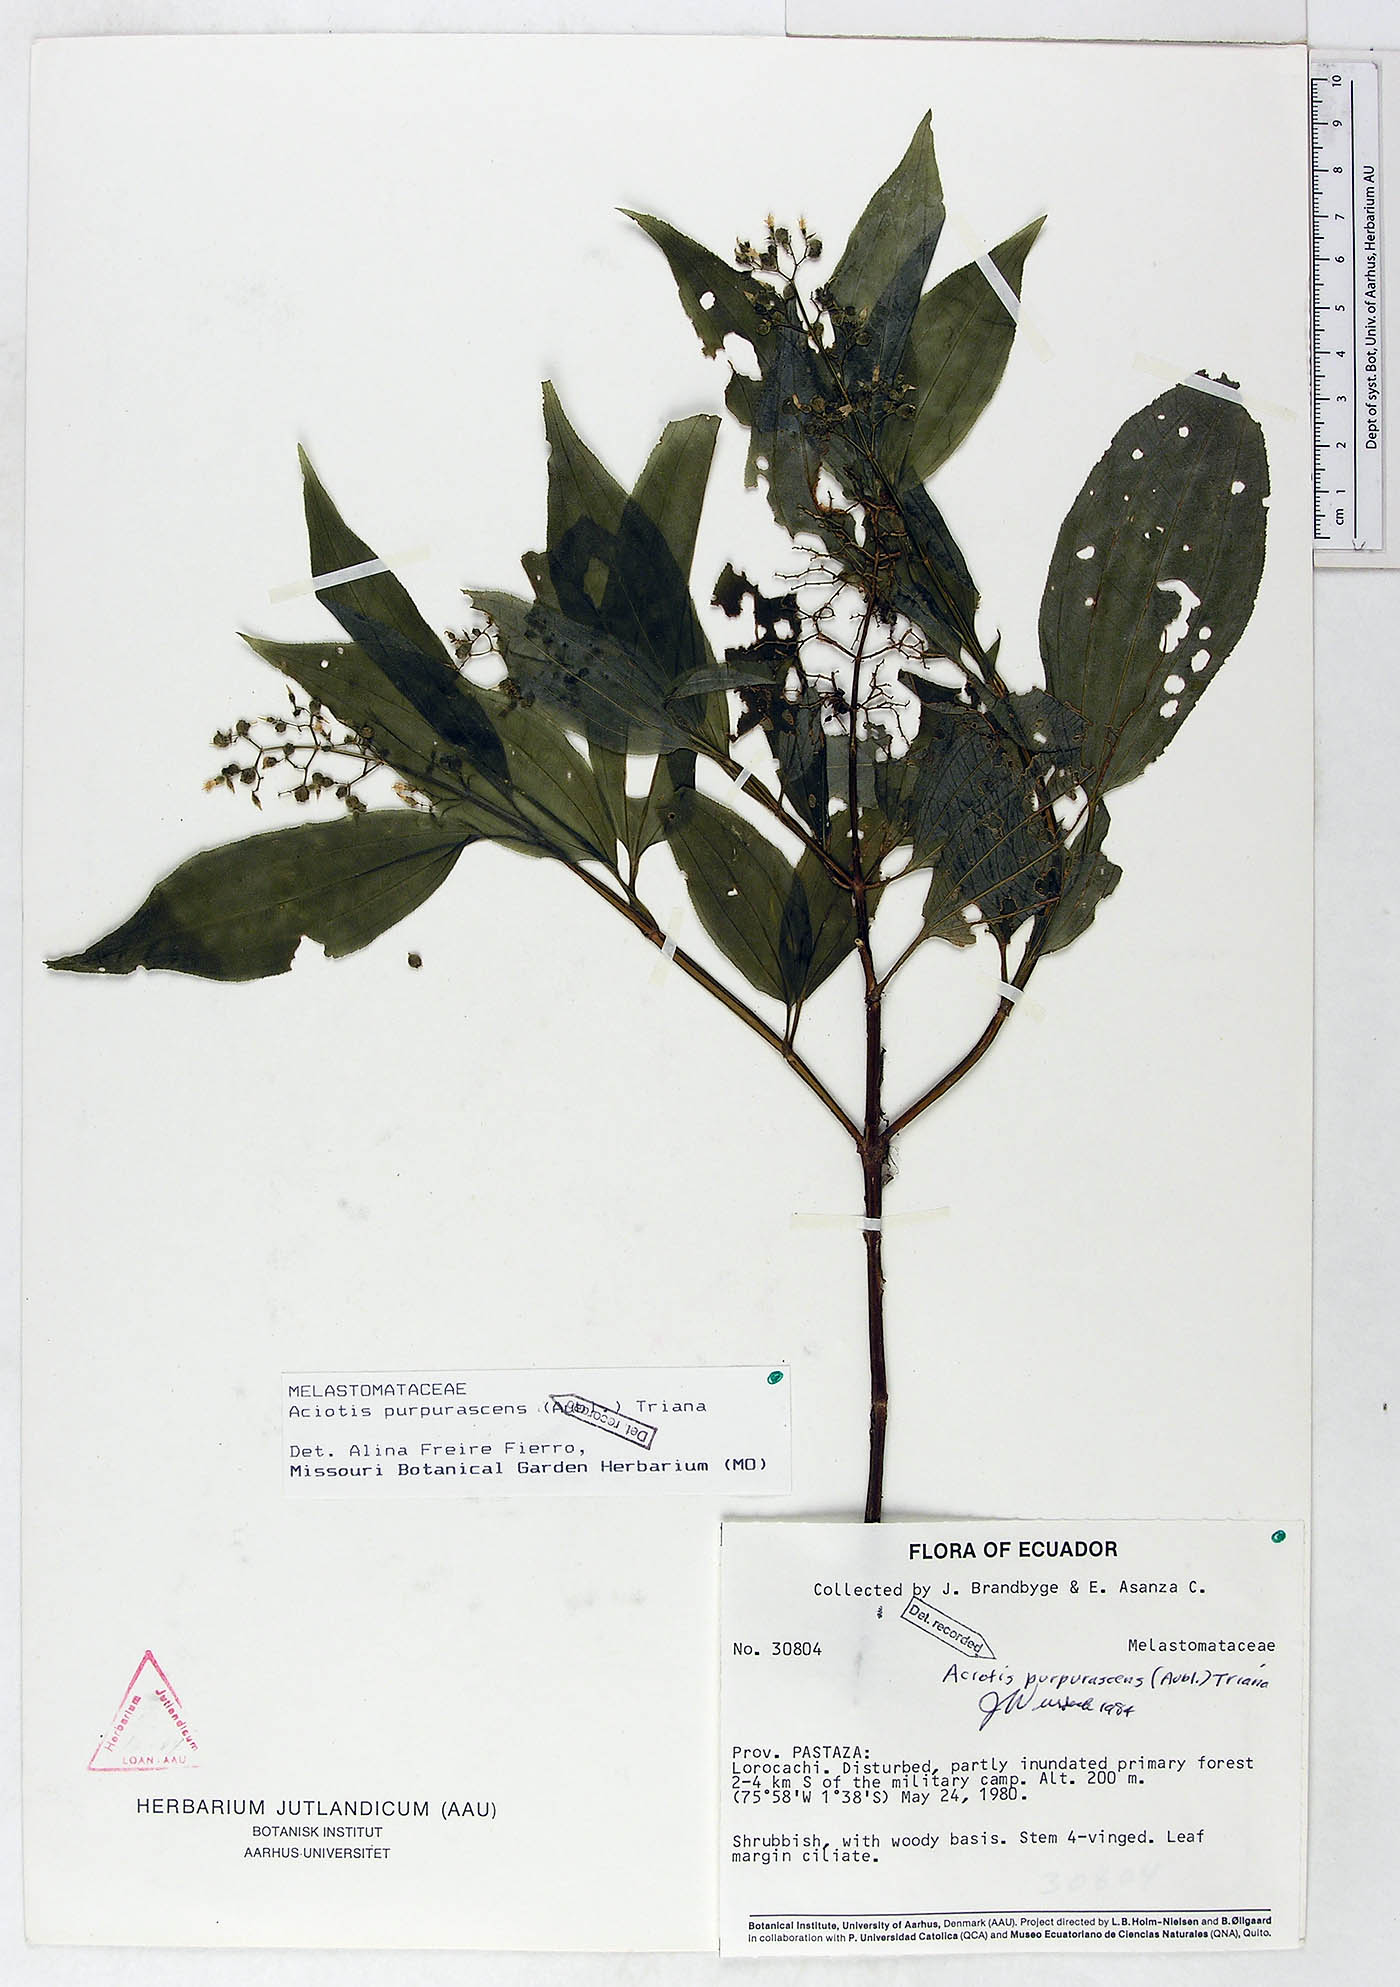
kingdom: Plantae
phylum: Tracheophyta
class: Magnoliopsida
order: Myrtales
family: Melastomataceae
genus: Aciotis
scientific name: Aciotis purpurascens
